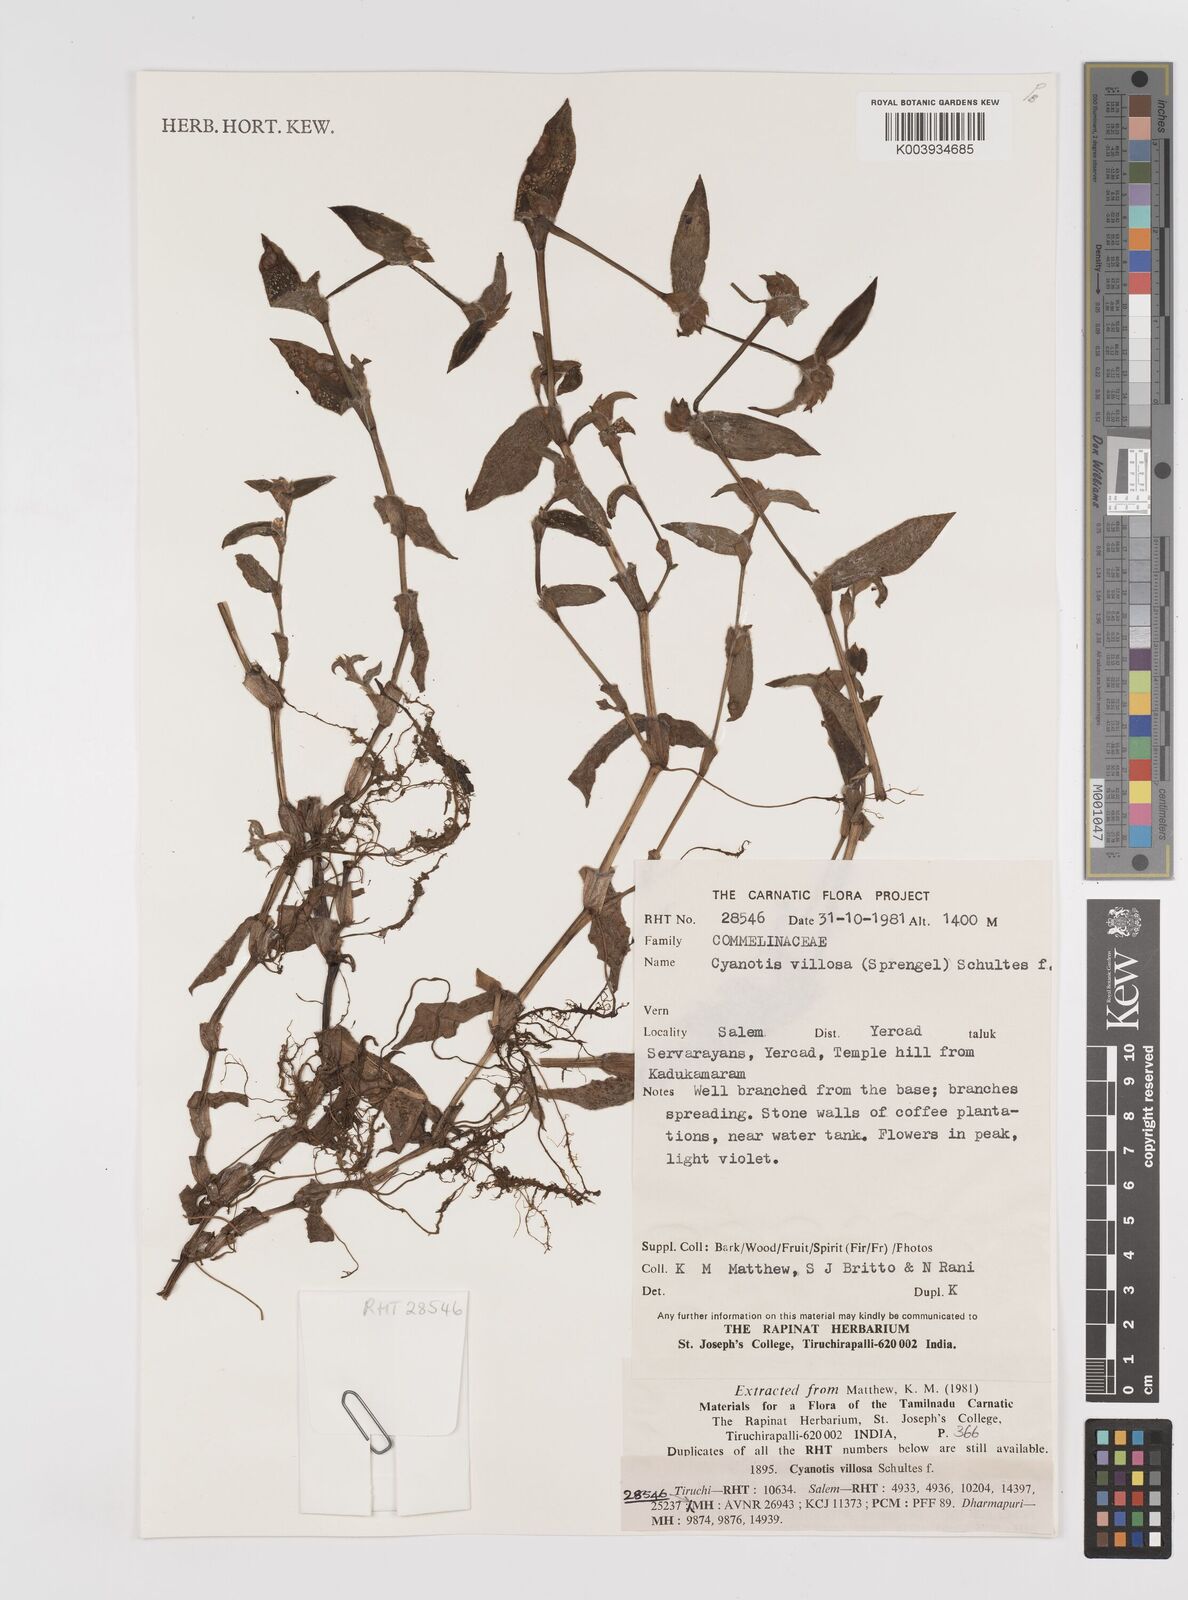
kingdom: Plantae
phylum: Tracheophyta
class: Liliopsida
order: Commelinales
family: Commelinaceae
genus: Cyanotis
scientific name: Cyanotis villosa
